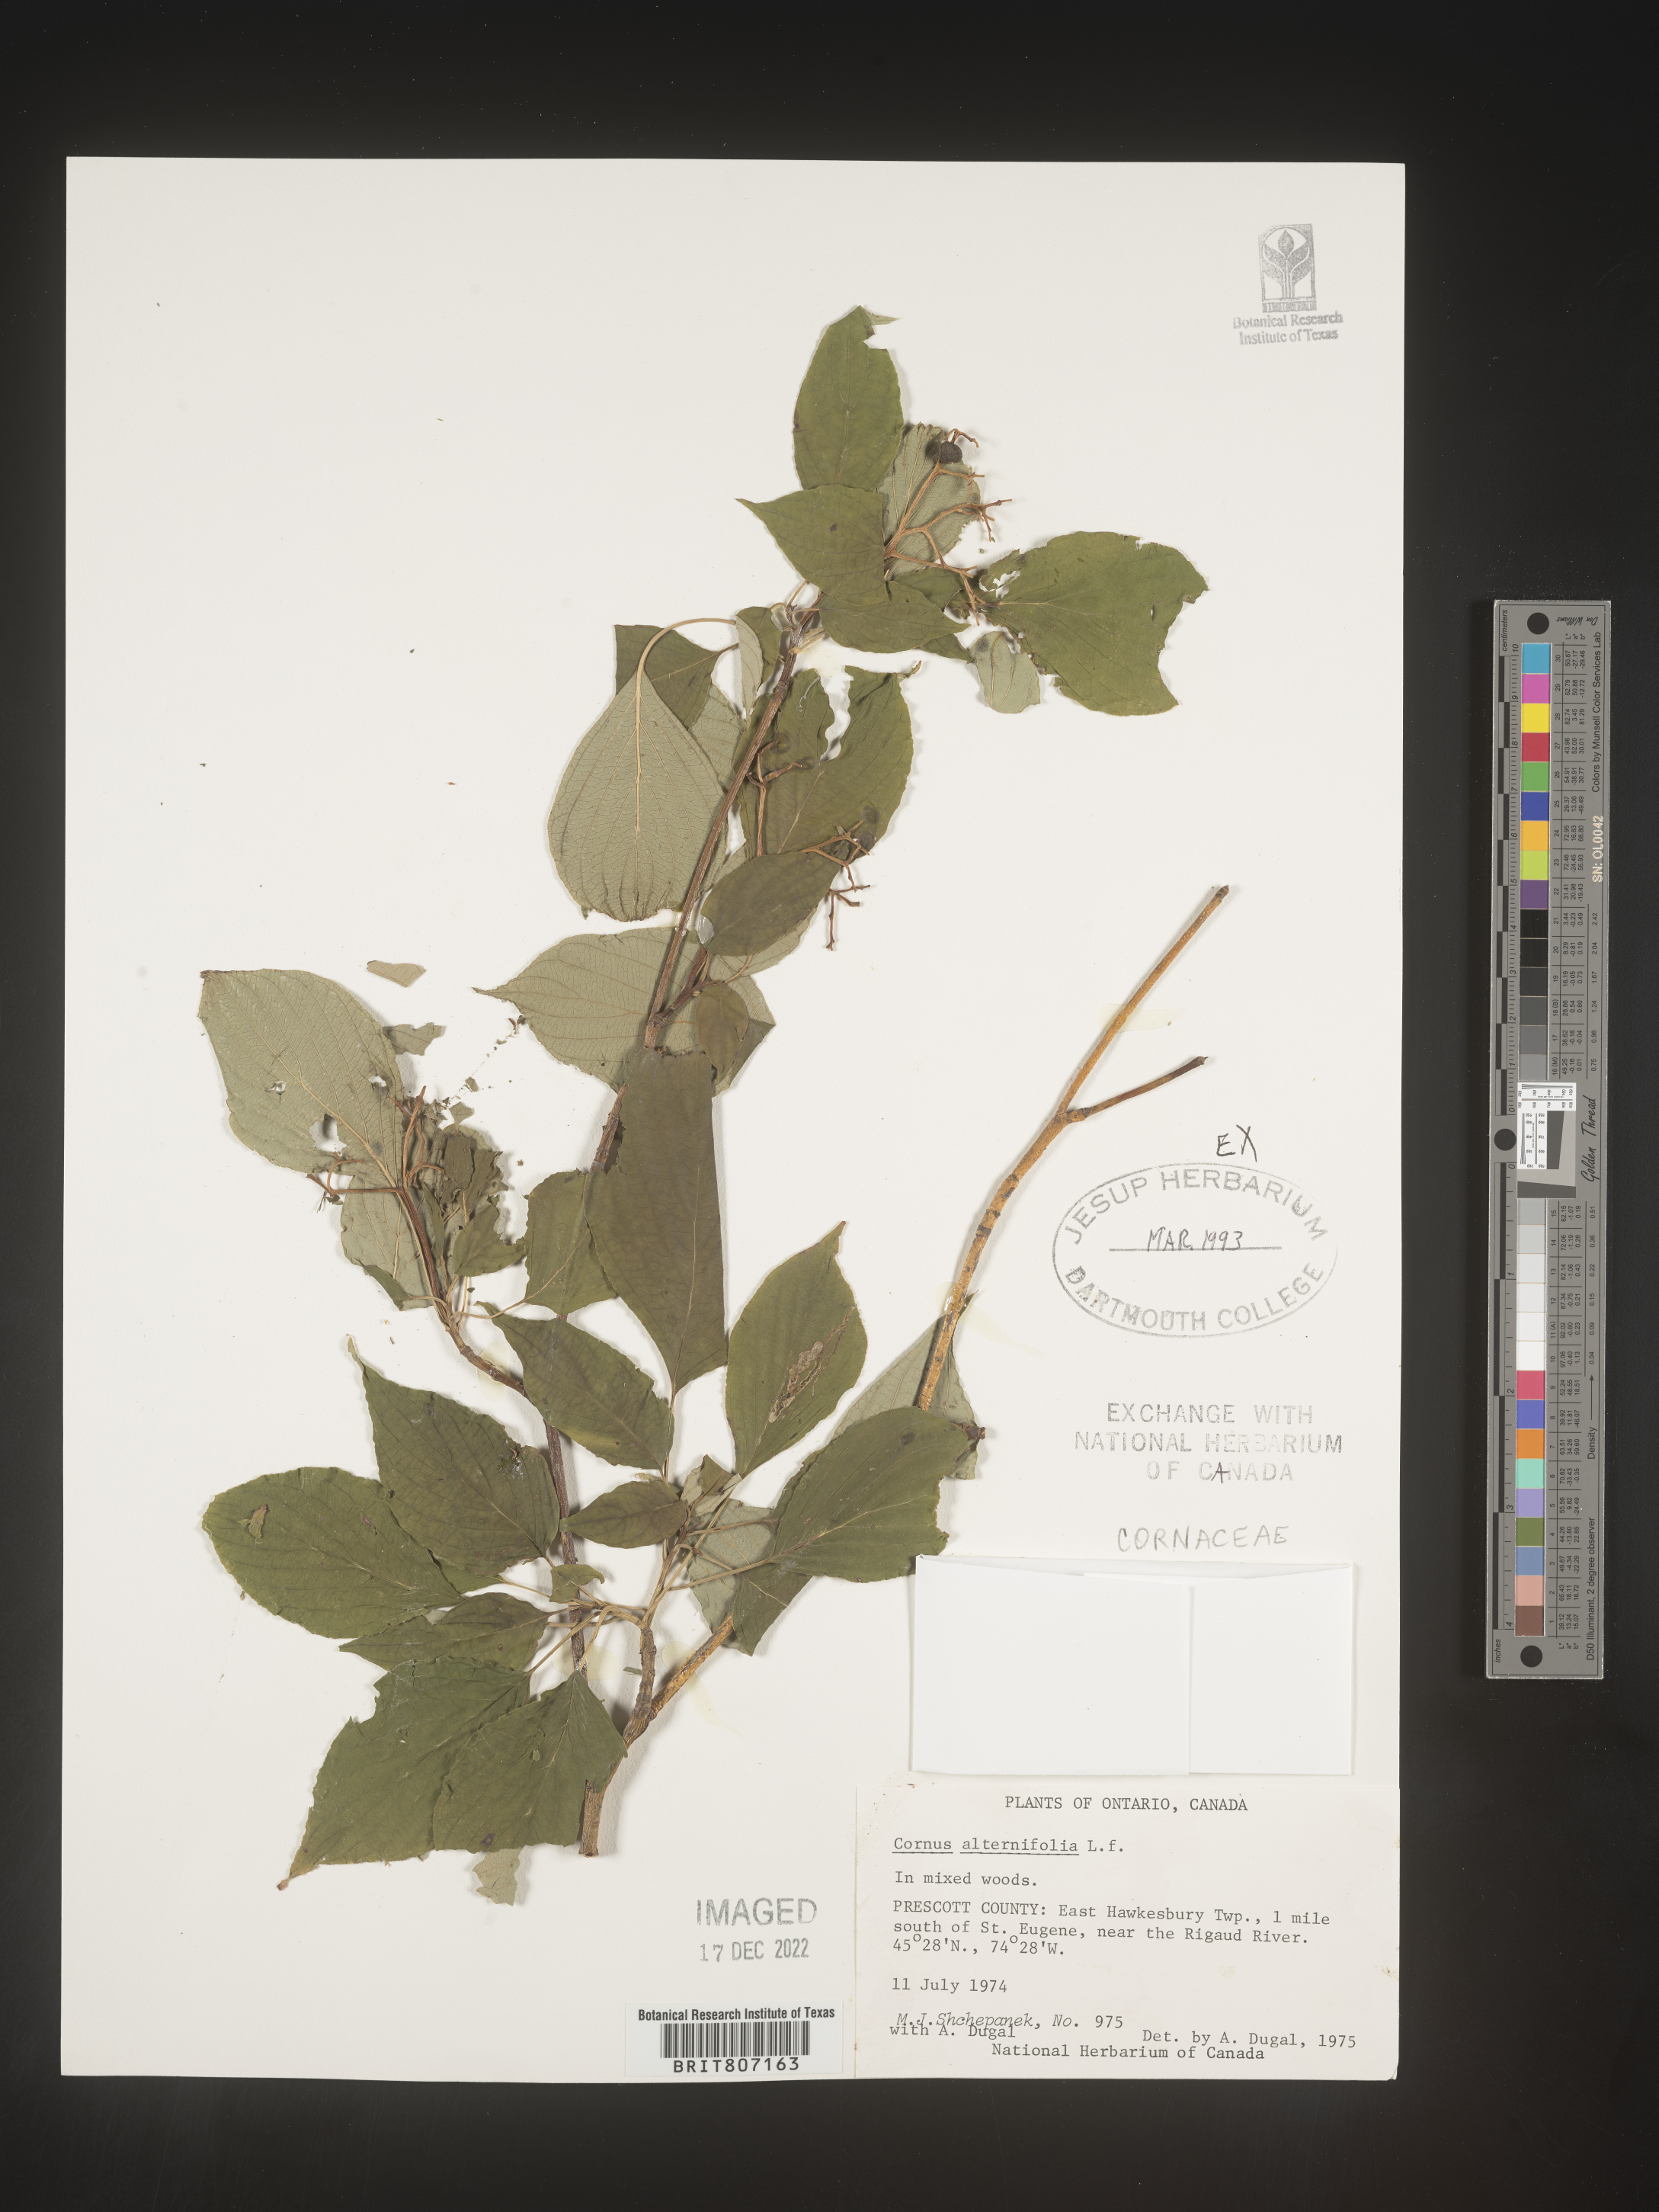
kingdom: Plantae
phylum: Tracheophyta
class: Magnoliopsida
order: Cornales
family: Cornaceae
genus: Cornus
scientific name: Cornus alternifolia
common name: Pagoda dogwood
